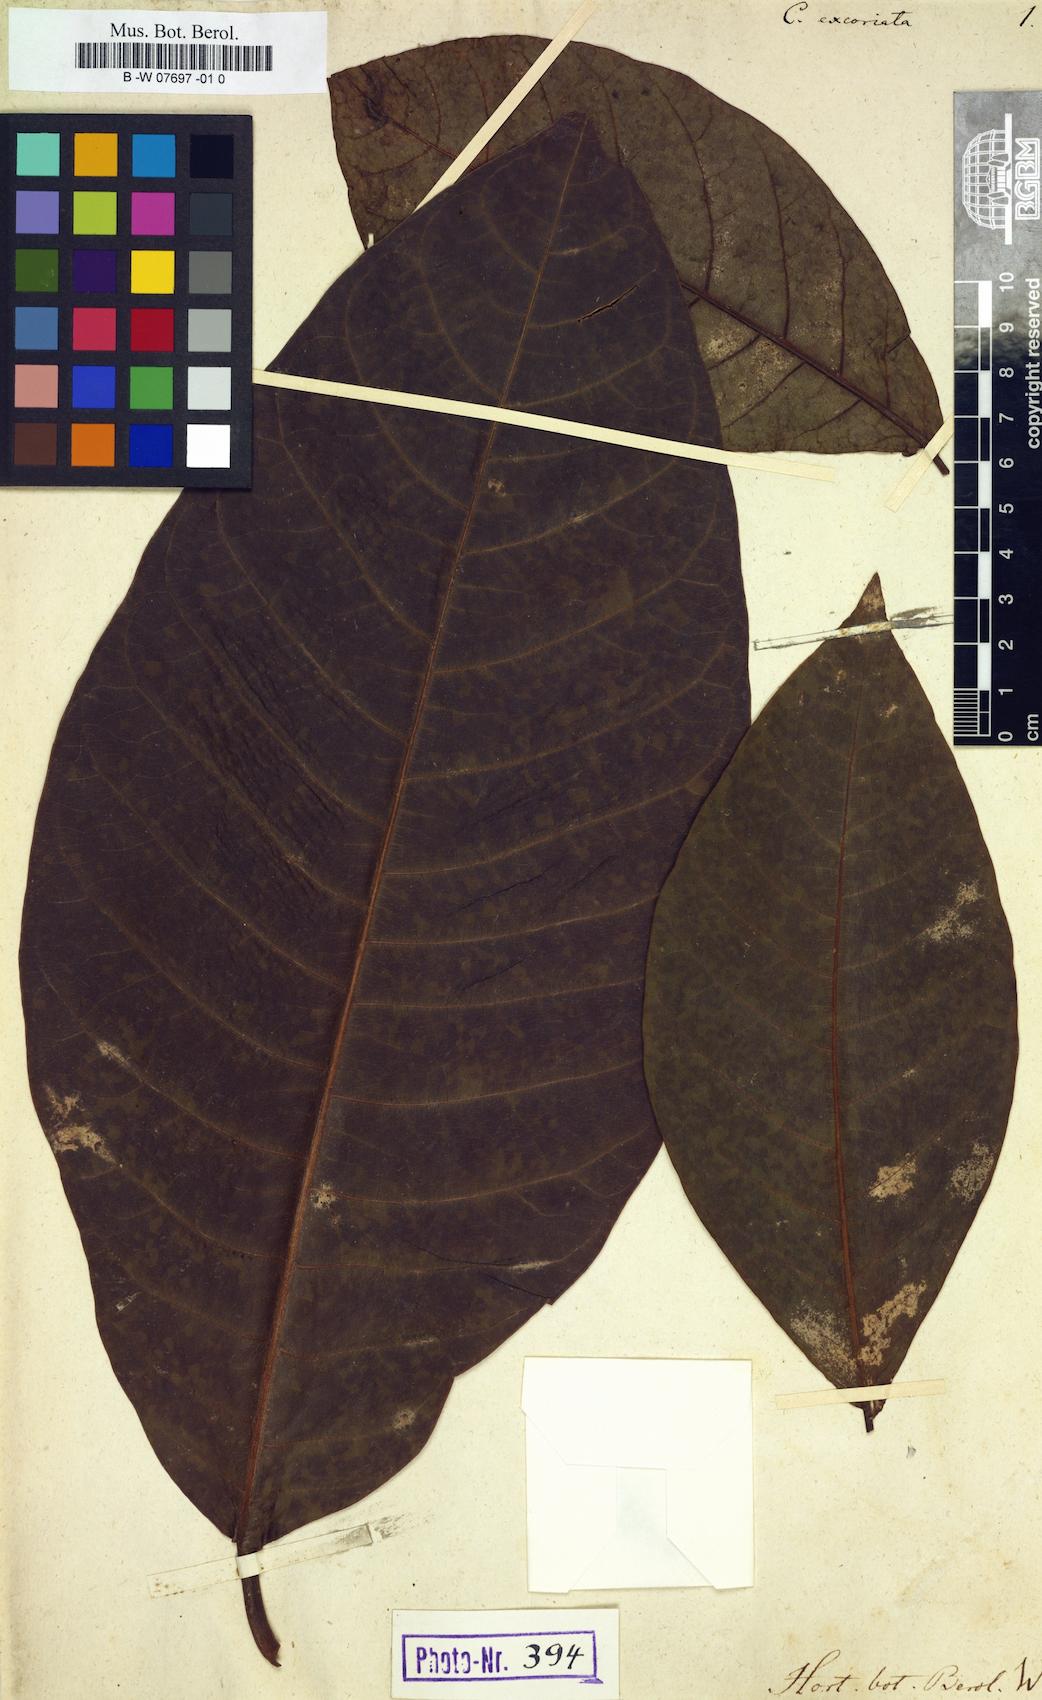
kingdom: Plantae
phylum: Tracheophyta
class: Magnoliopsida
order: Caryophyllales
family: Polygonaceae
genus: Coccoloba
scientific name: Coccoloba tenuifolia
